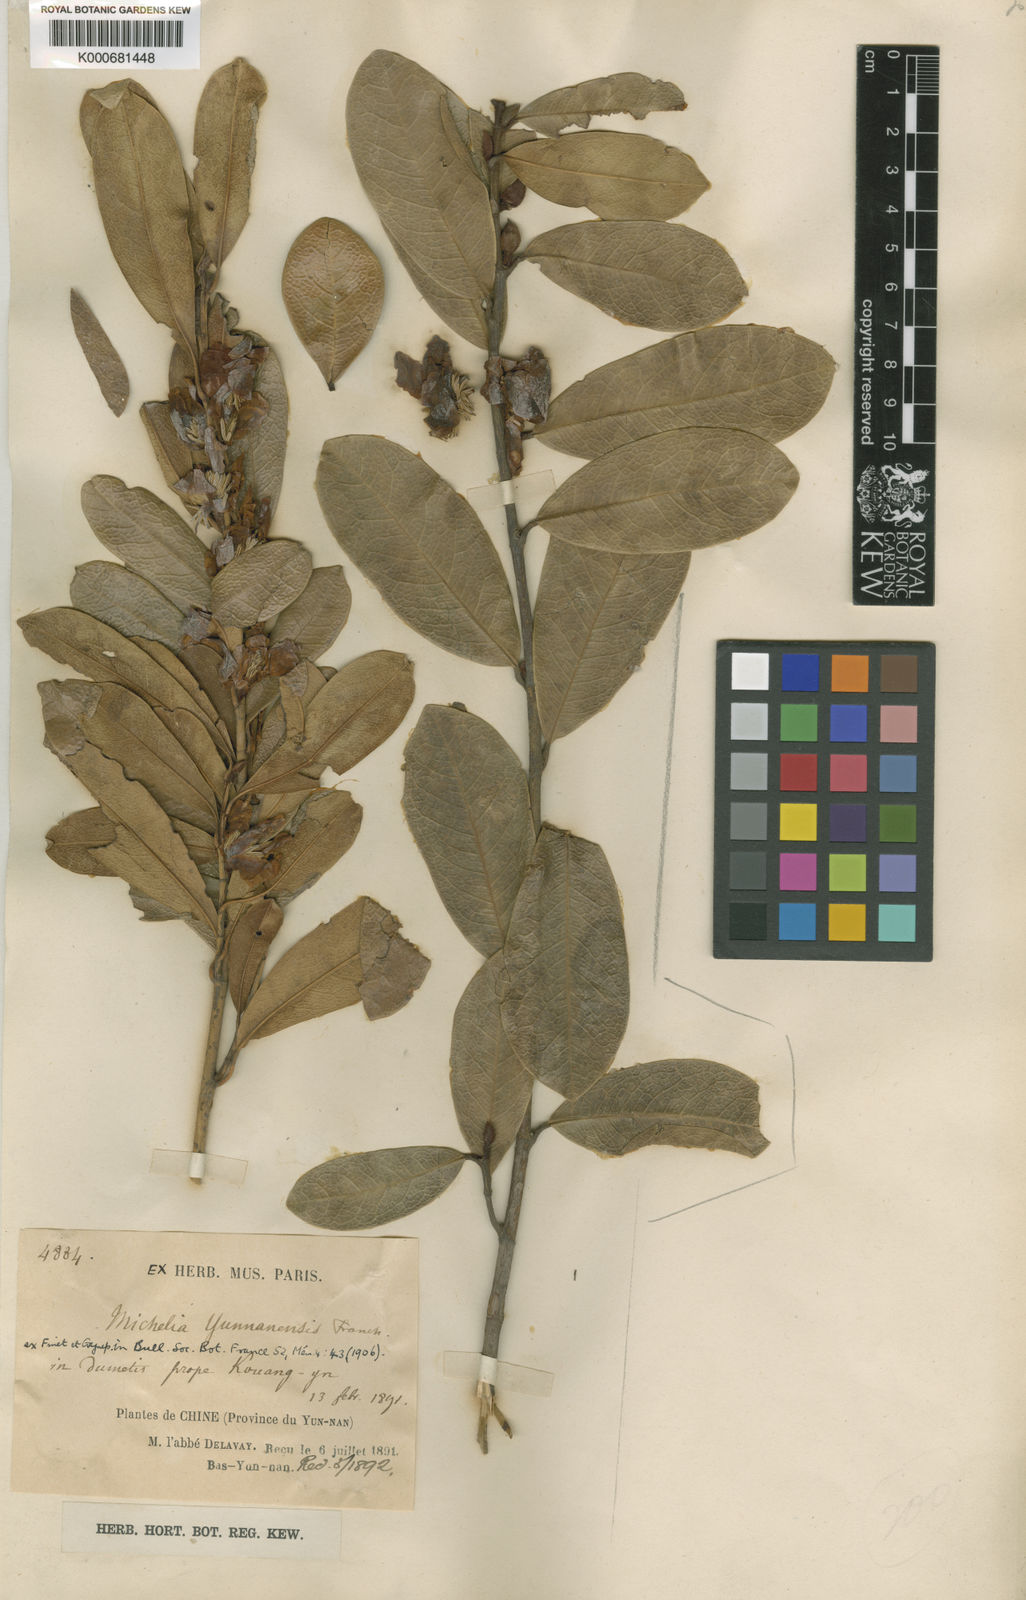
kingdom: Plantae
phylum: Tracheophyta
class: Magnoliopsida
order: Magnoliales
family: Magnoliaceae
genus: Magnolia
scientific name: Magnolia ernestii
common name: Yellow lily-tree
